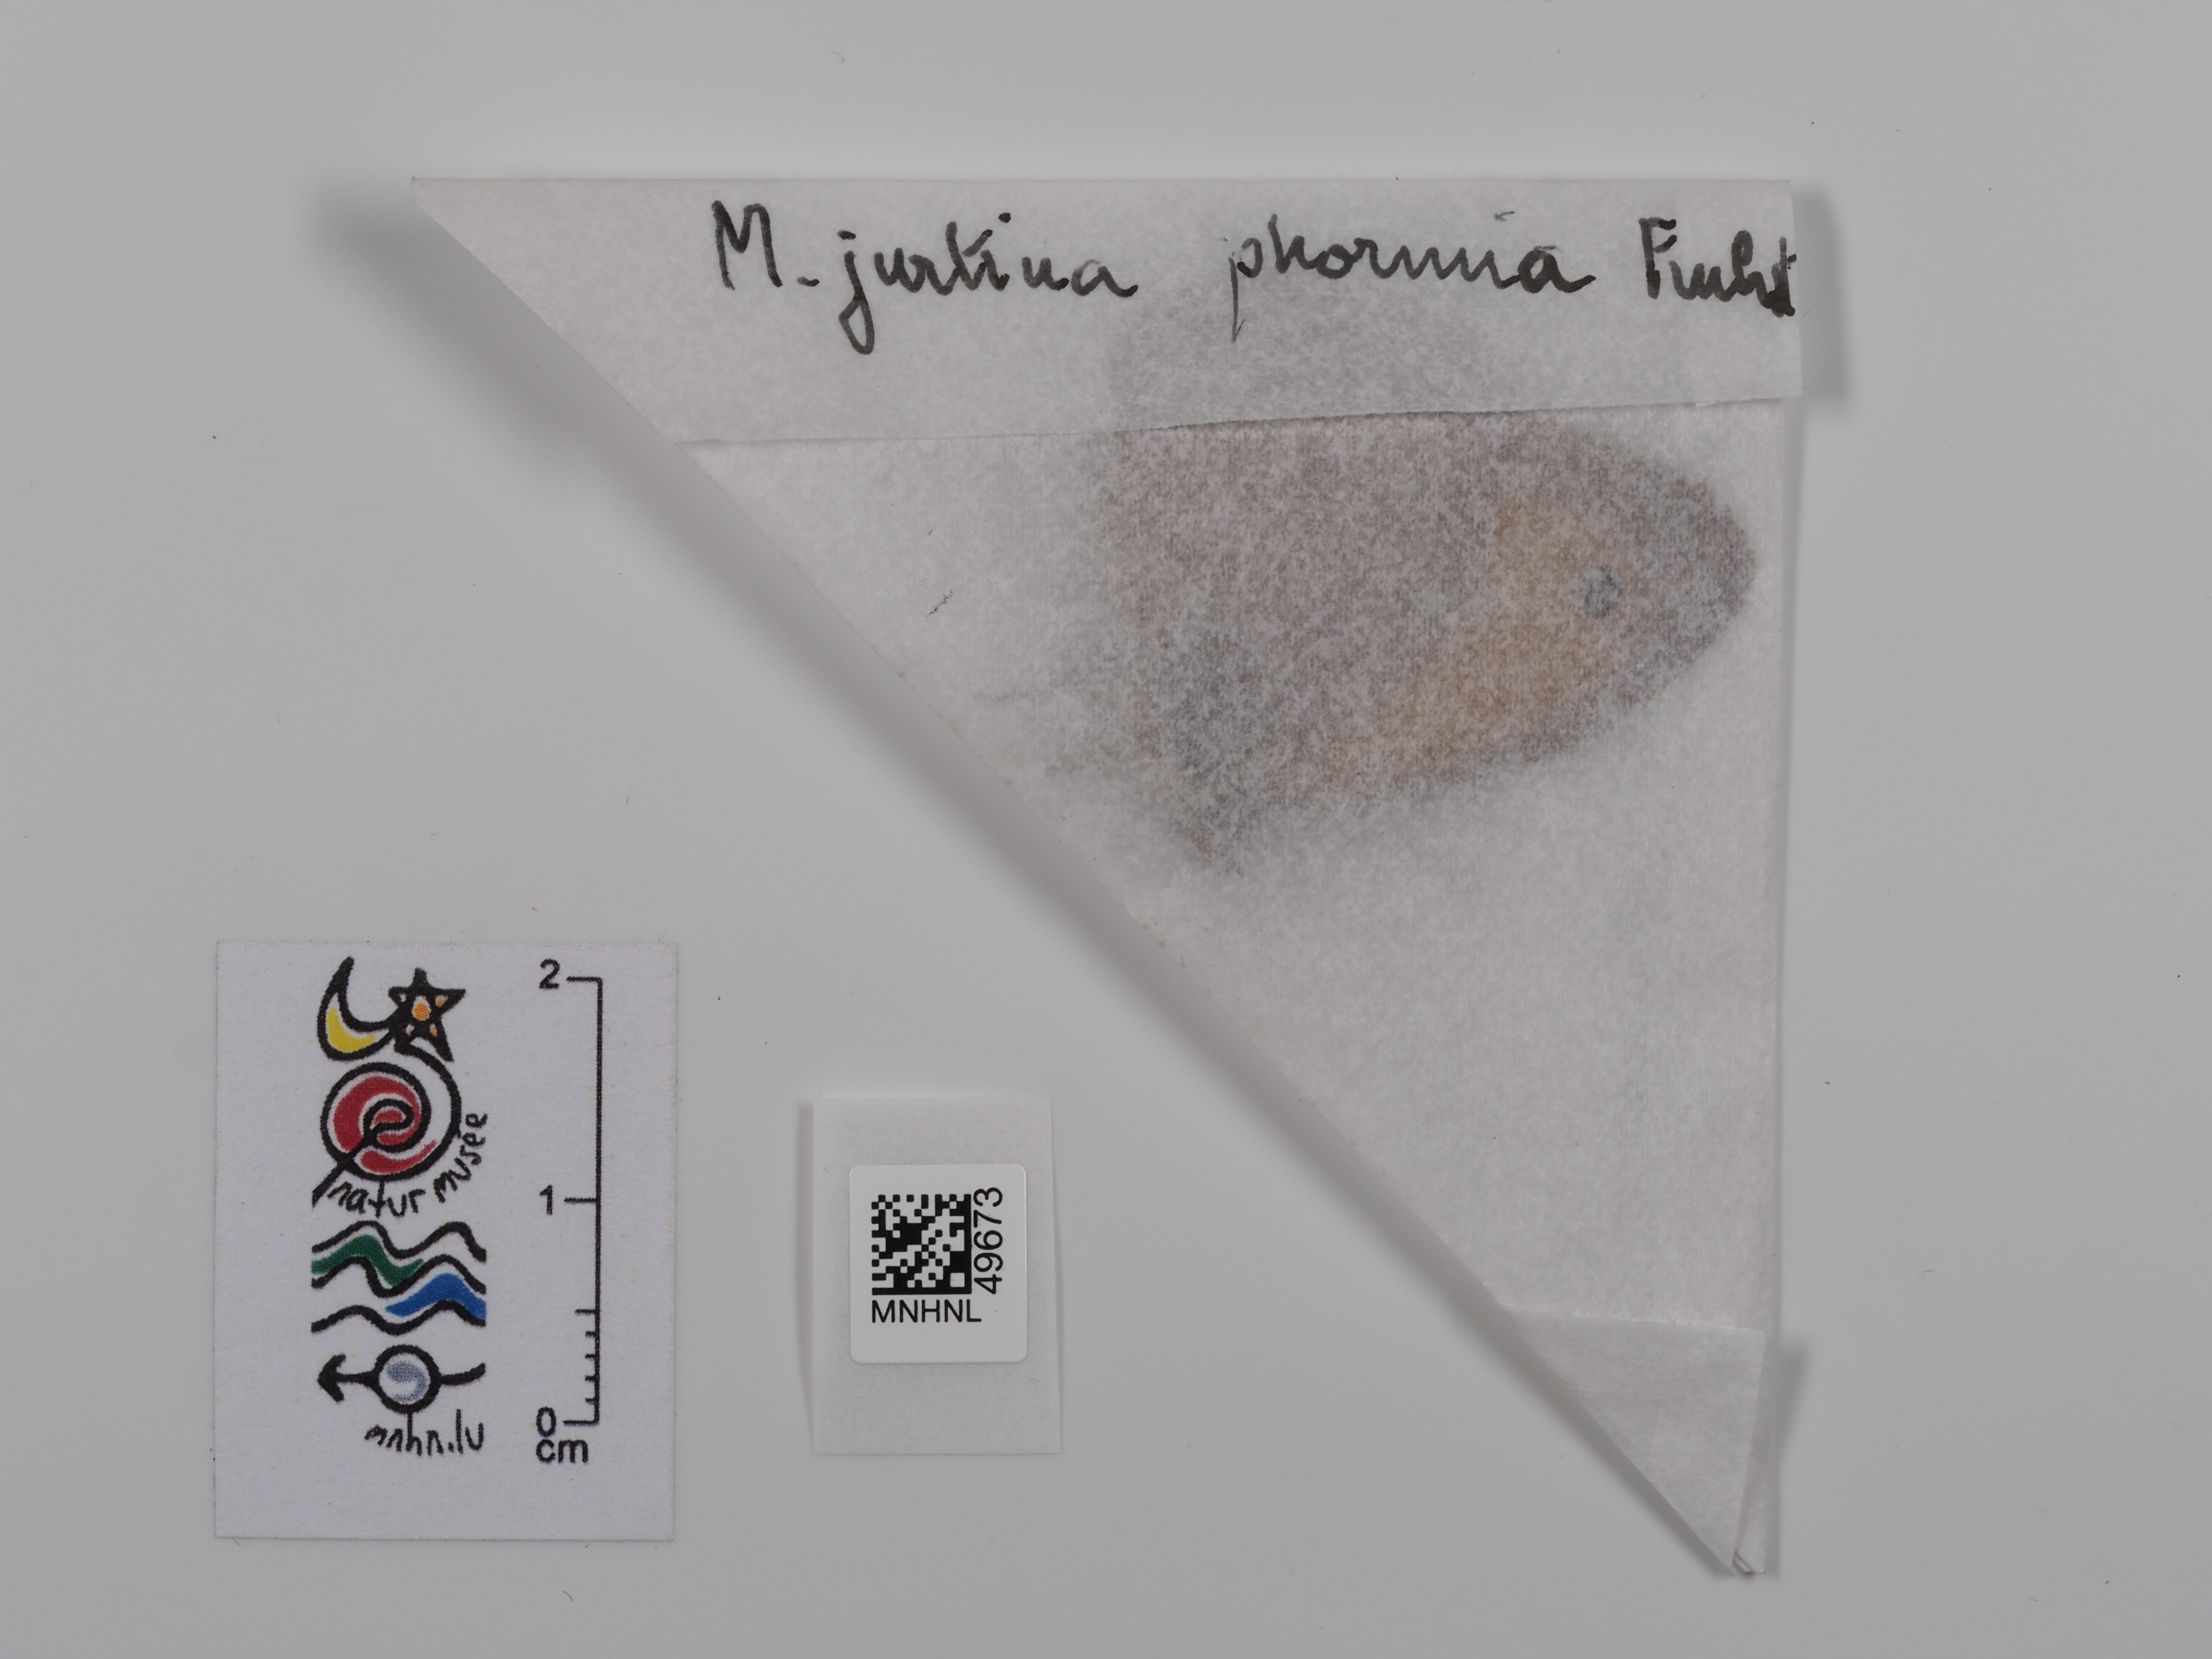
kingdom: Animalia
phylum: Arthropoda
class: Insecta
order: Lepidoptera
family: Nymphalidae
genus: Maniola
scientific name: Maniola jurtina
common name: Meadow brown
